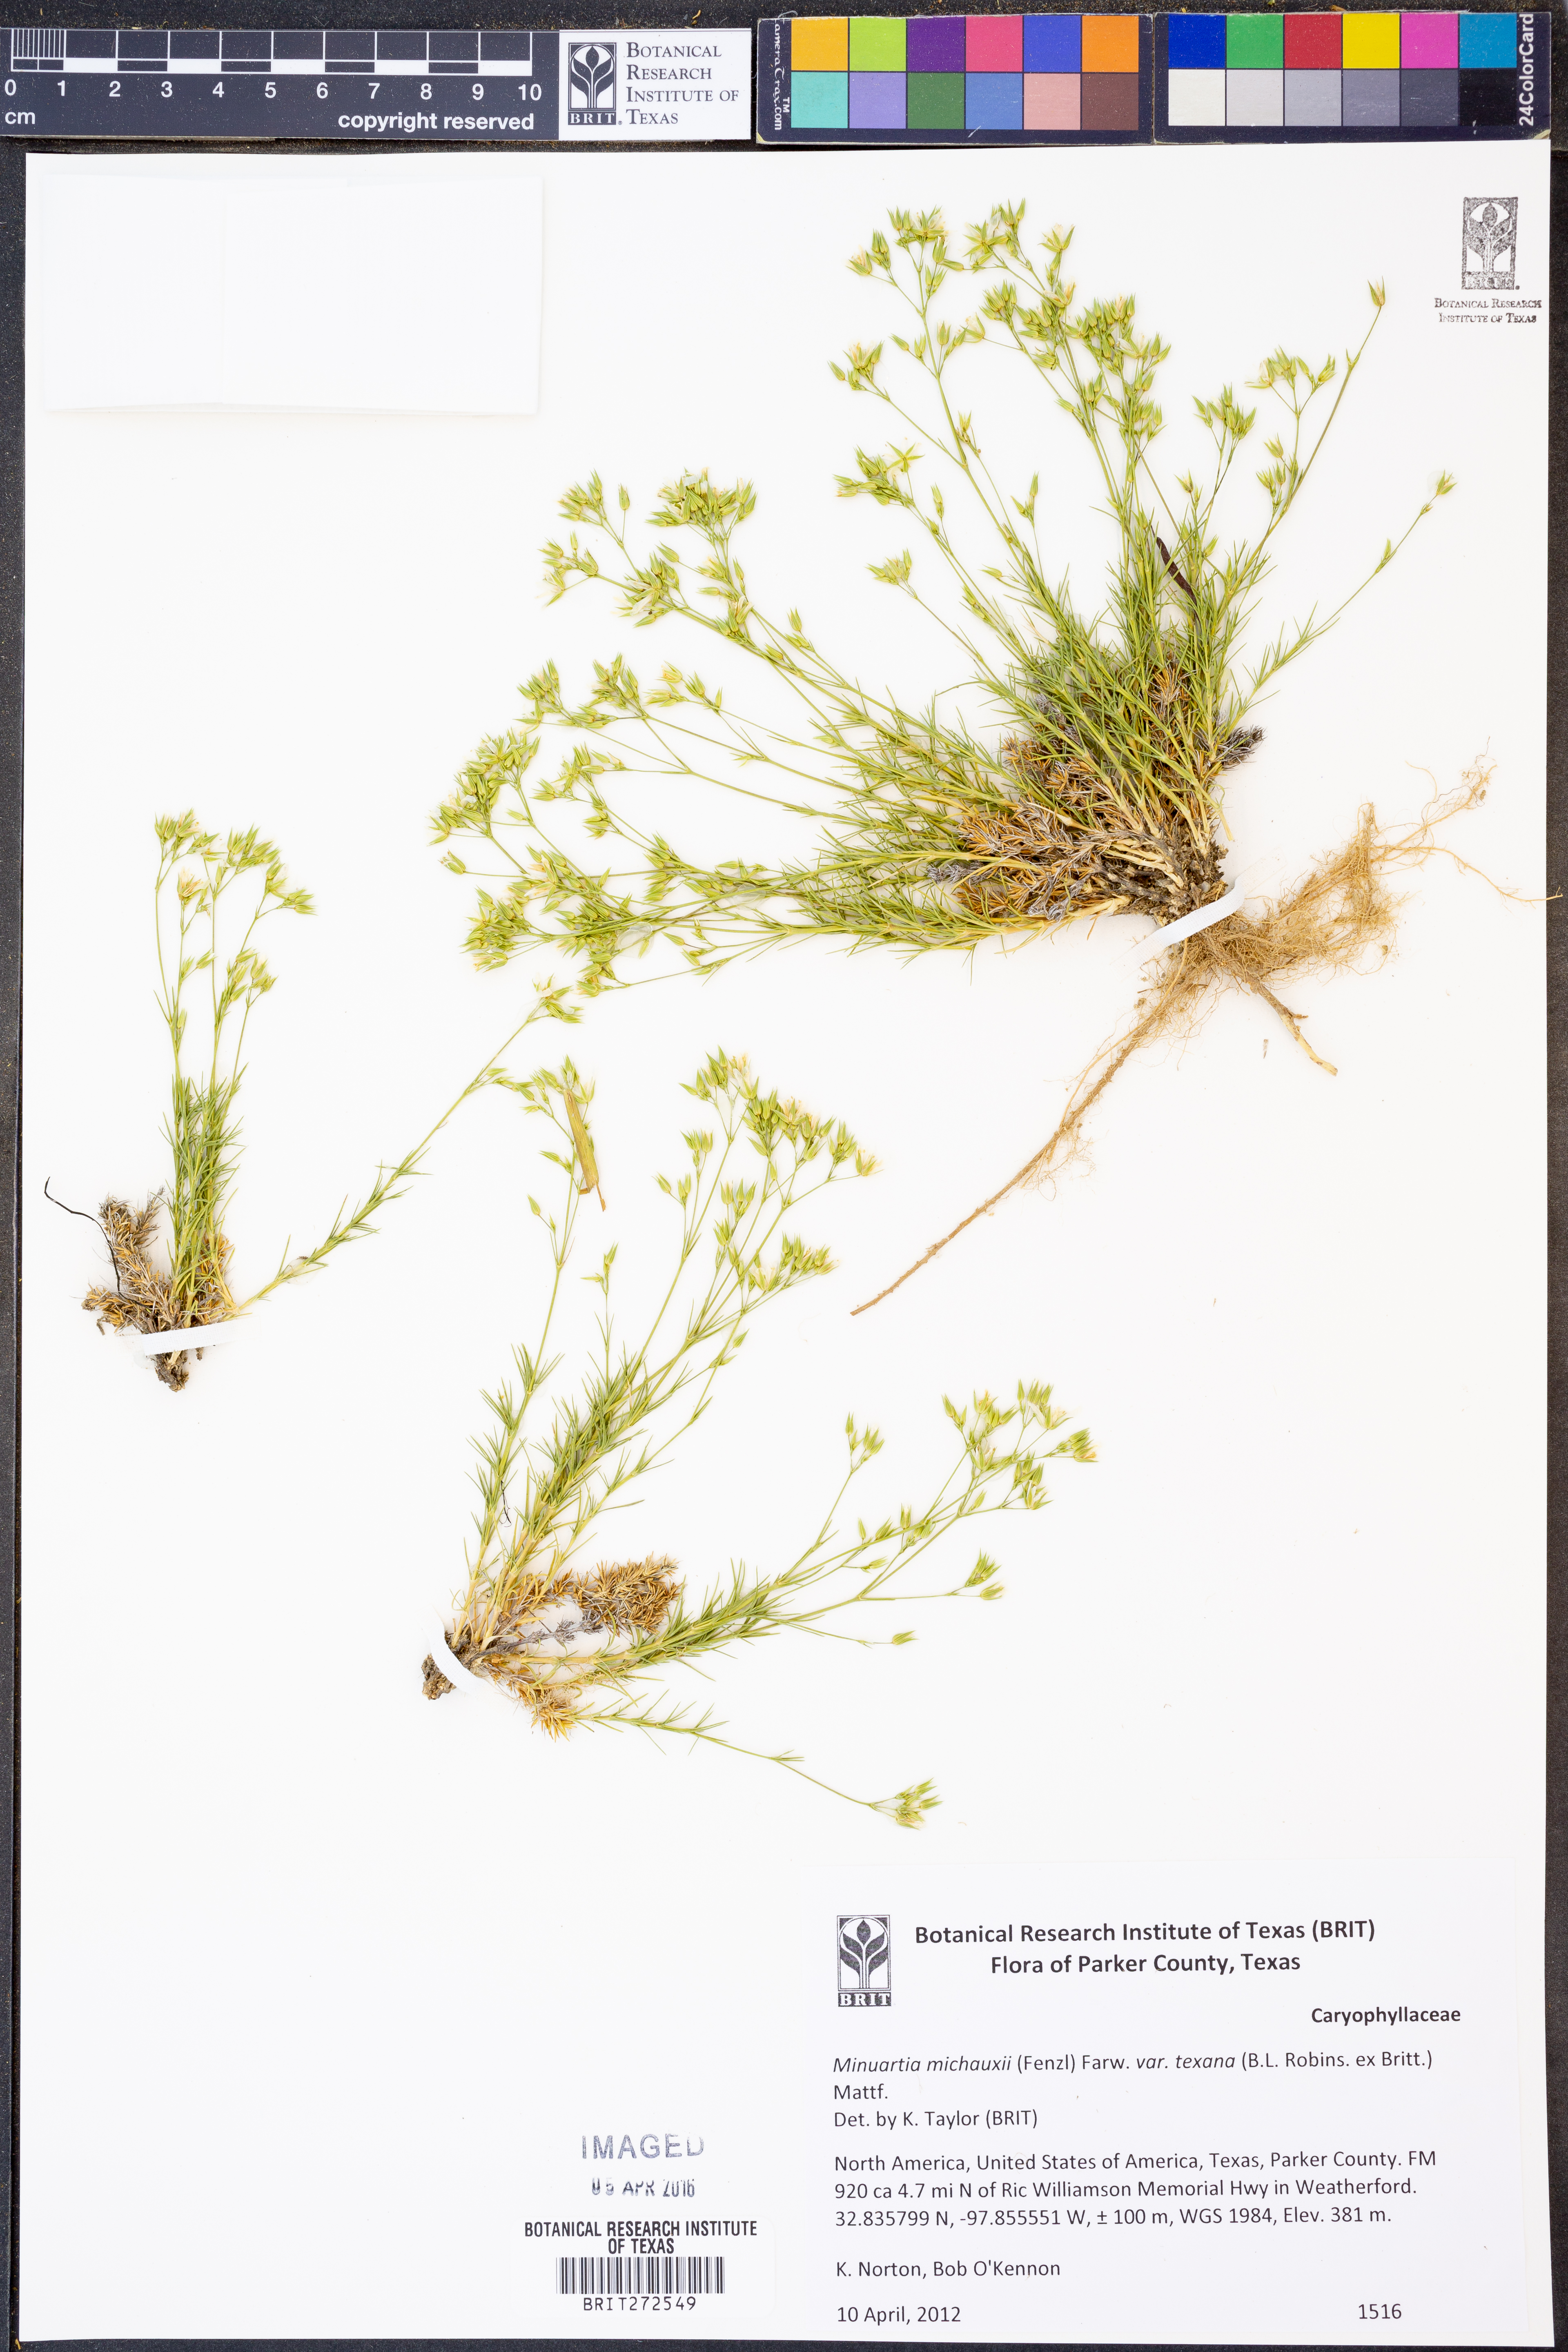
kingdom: Plantae
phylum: Tracheophyta
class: Magnoliopsida
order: Caryophyllales
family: Caryophyllaceae
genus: Sabulina
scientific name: Sabulina texana
